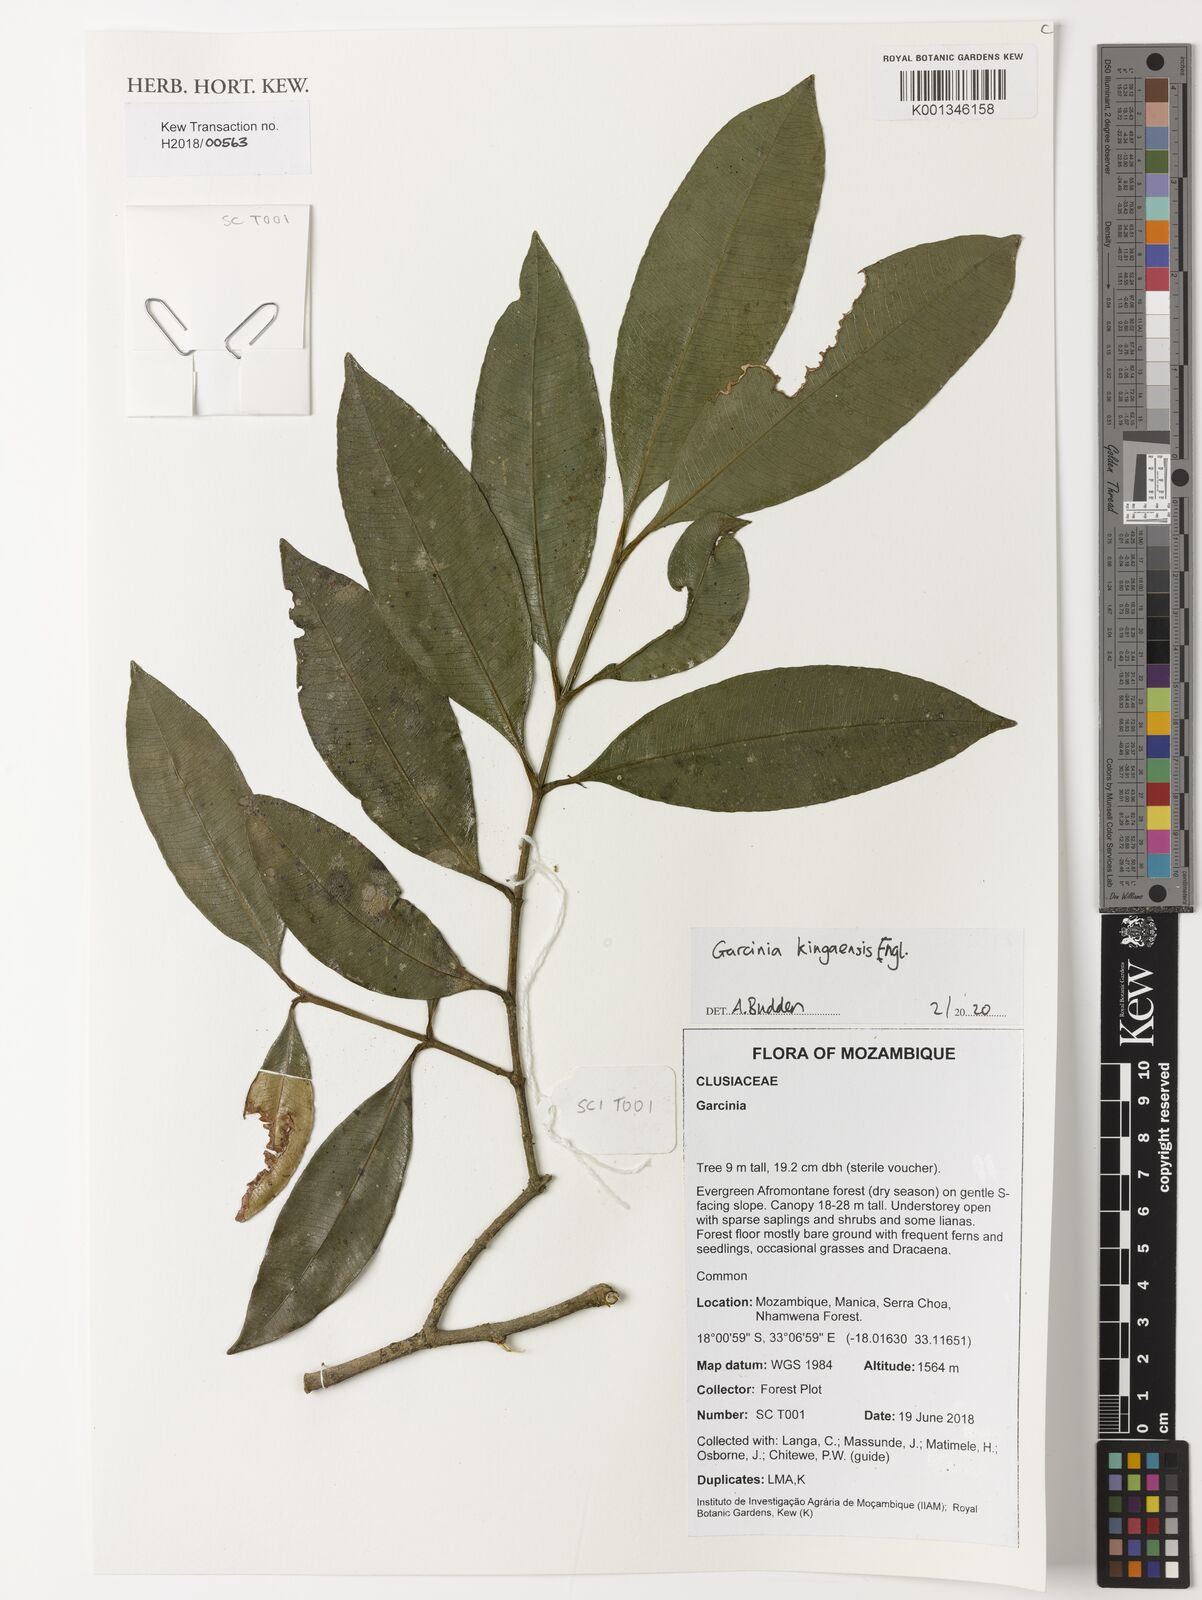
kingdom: Plantae
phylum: Tracheophyta
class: Magnoliopsida
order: Malpighiales
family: Clusiaceae
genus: Garcinia
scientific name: Garcinia kingaensis
